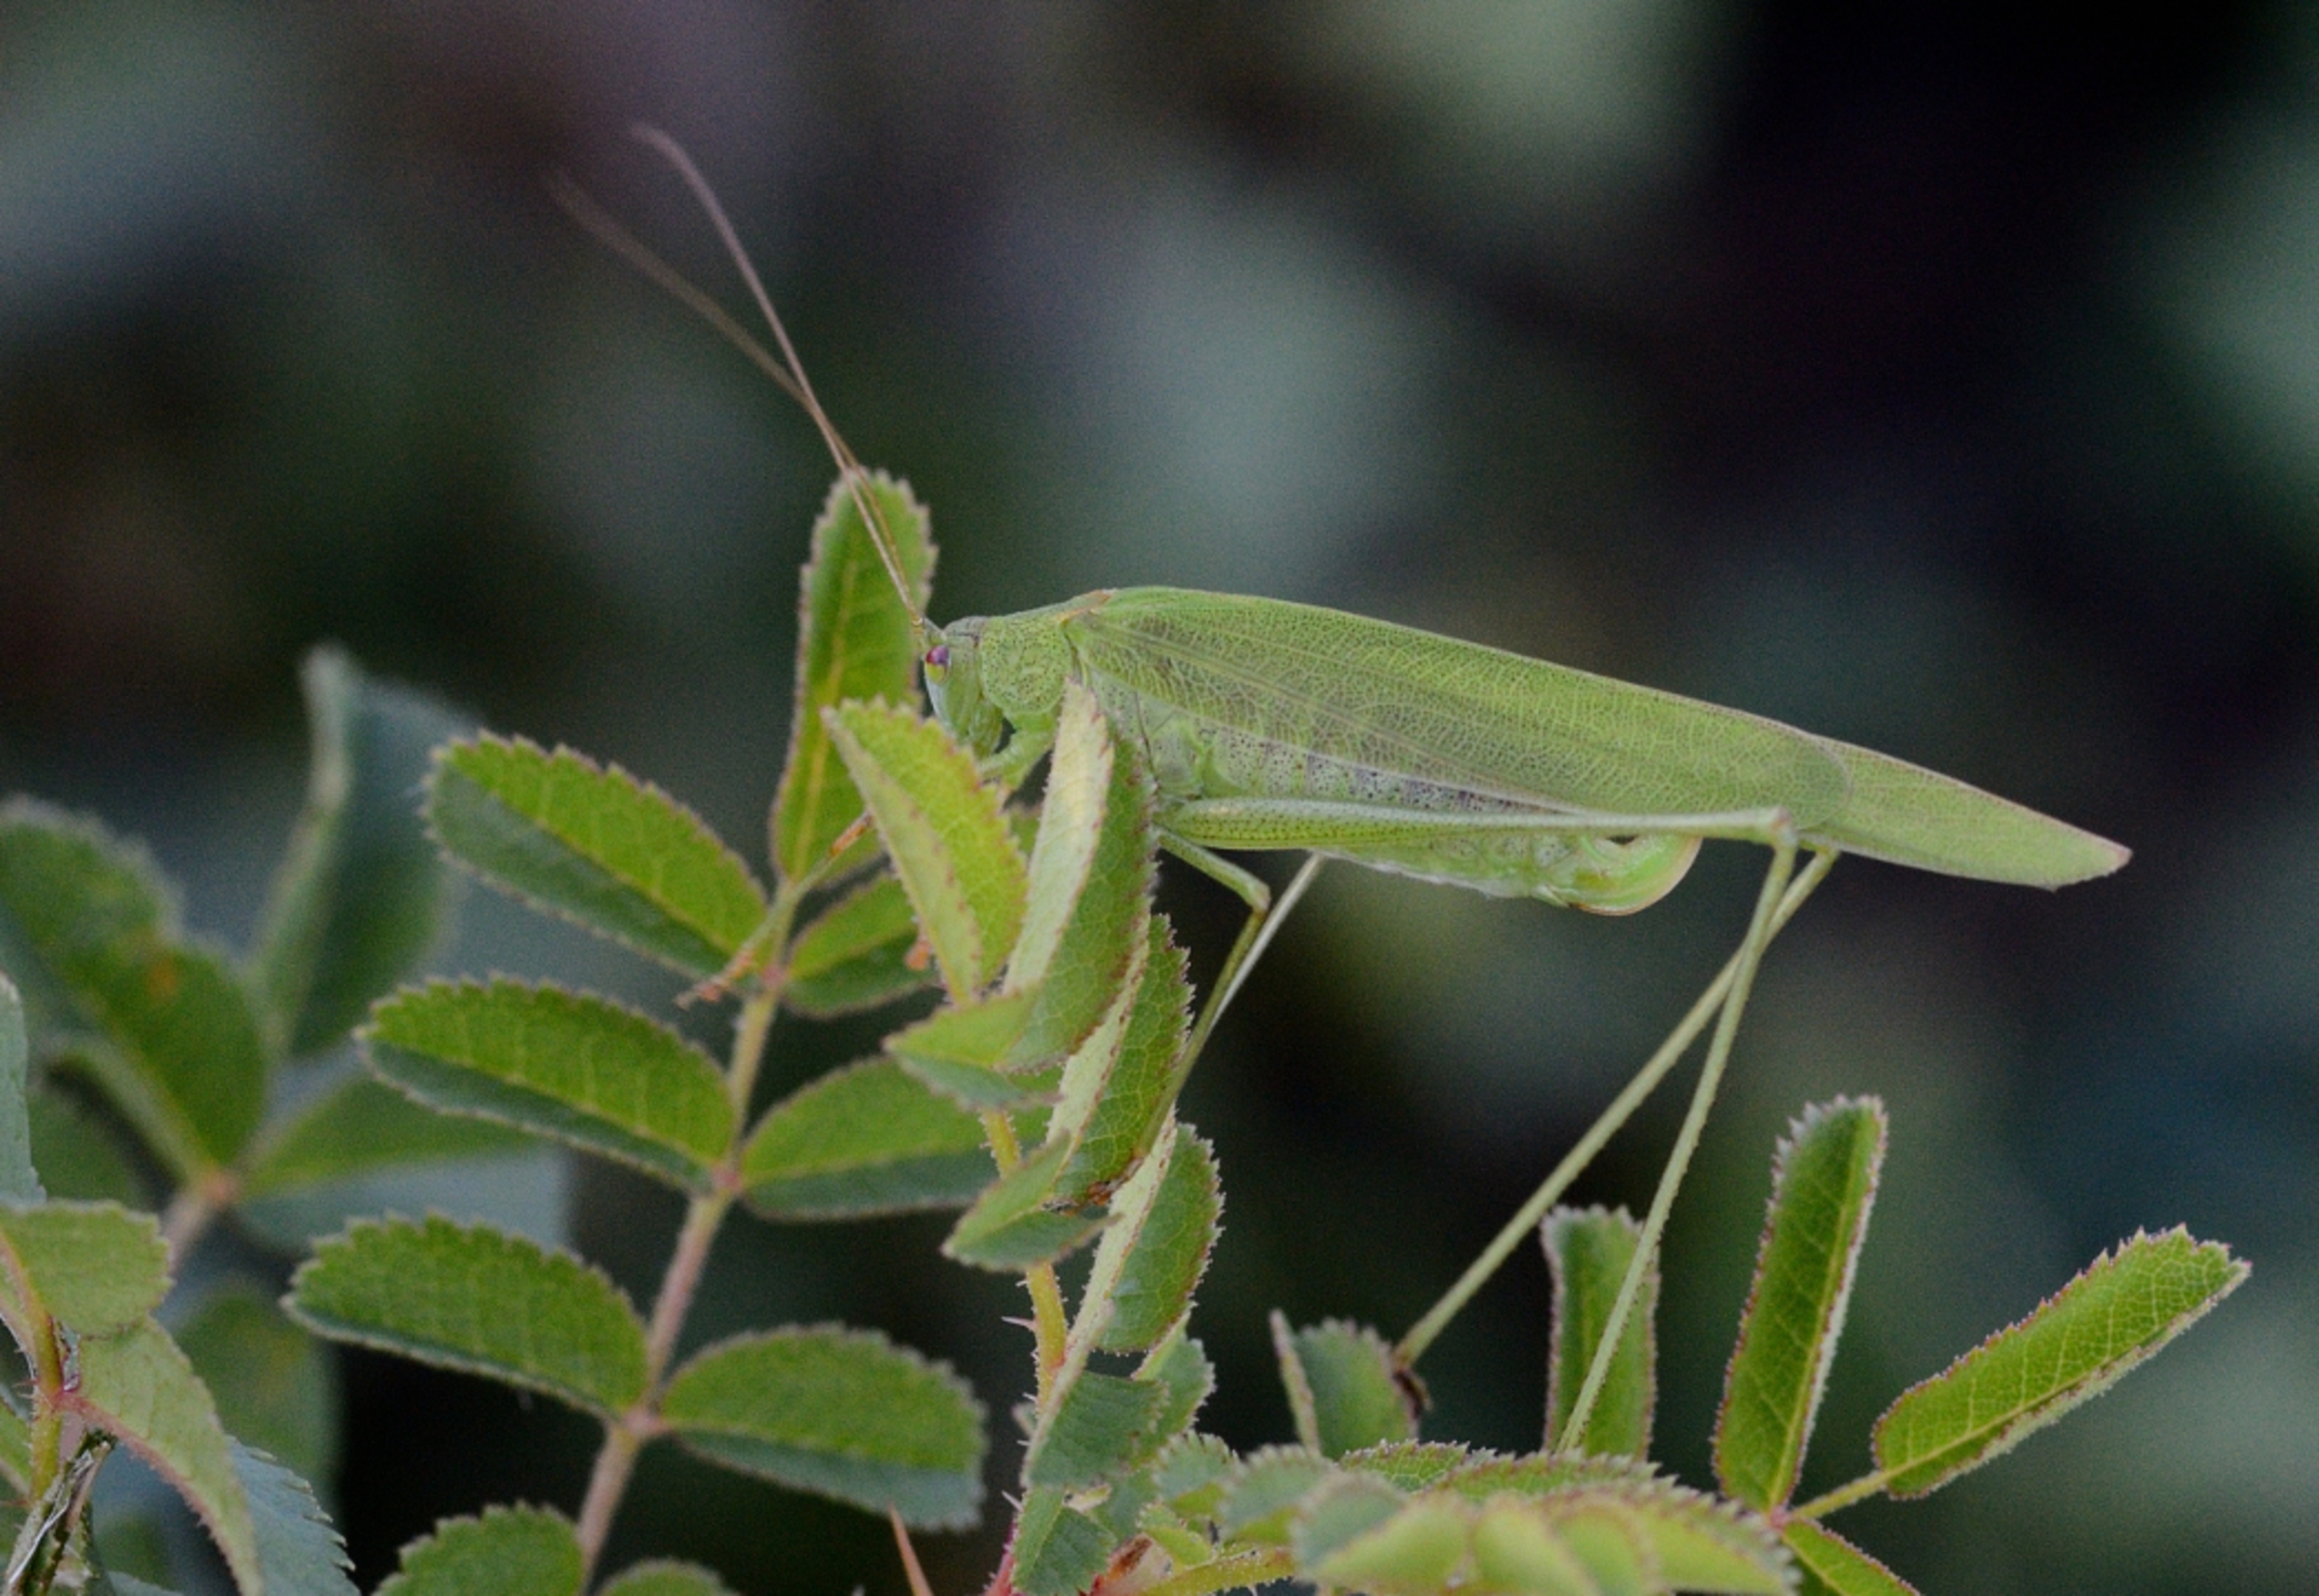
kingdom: Animalia
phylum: Arthropoda
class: Insecta
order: Orthoptera
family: Tettigoniidae
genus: Phaneroptera
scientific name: Phaneroptera falcata
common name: Seglgræshoppe
